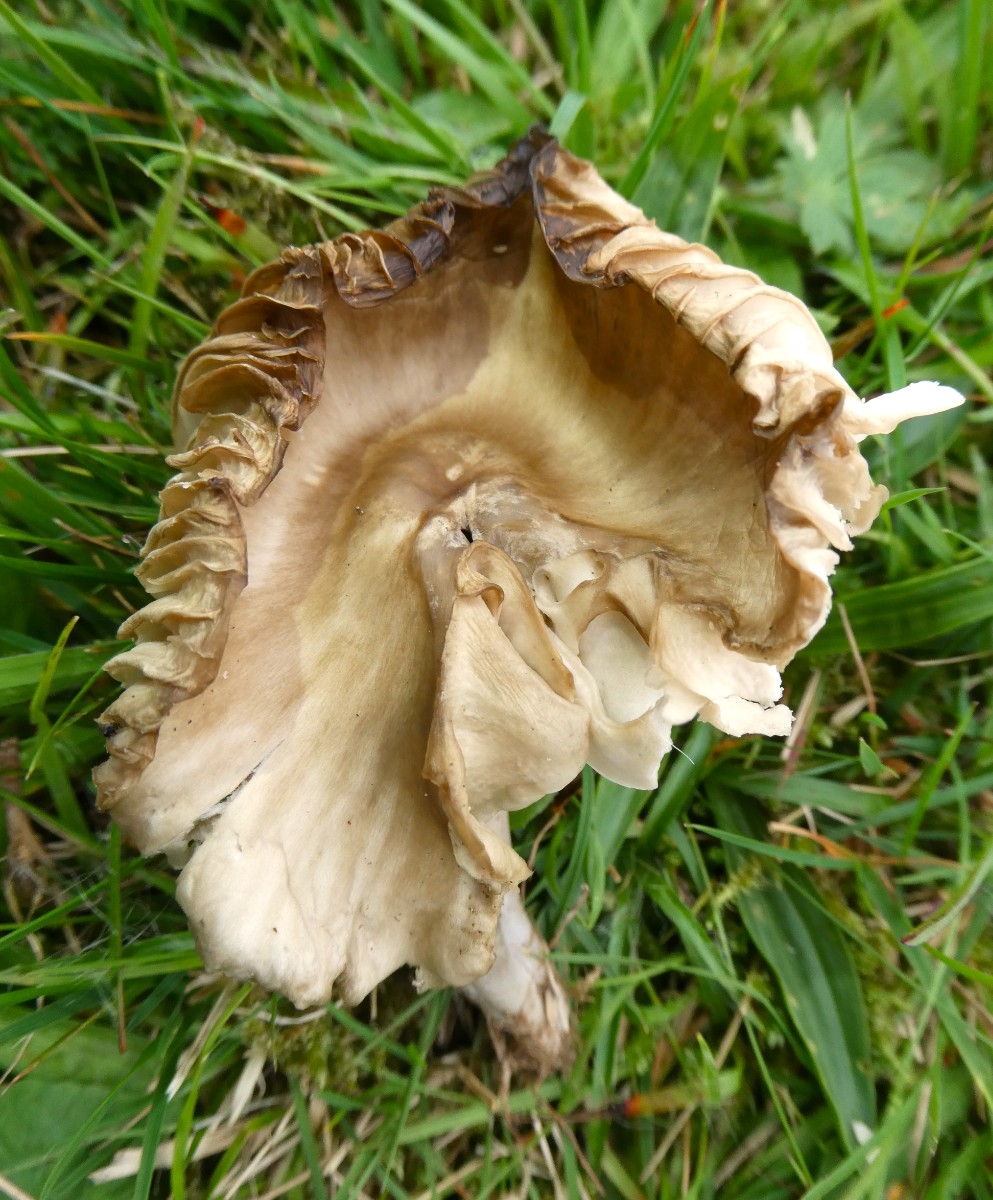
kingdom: Fungi
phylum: Basidiomycota
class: Agaricomycetes
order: Agaricales
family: Hygrophoraceae
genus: Gliophorus
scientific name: Gliophorus irrigatus
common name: slimet vokshat
